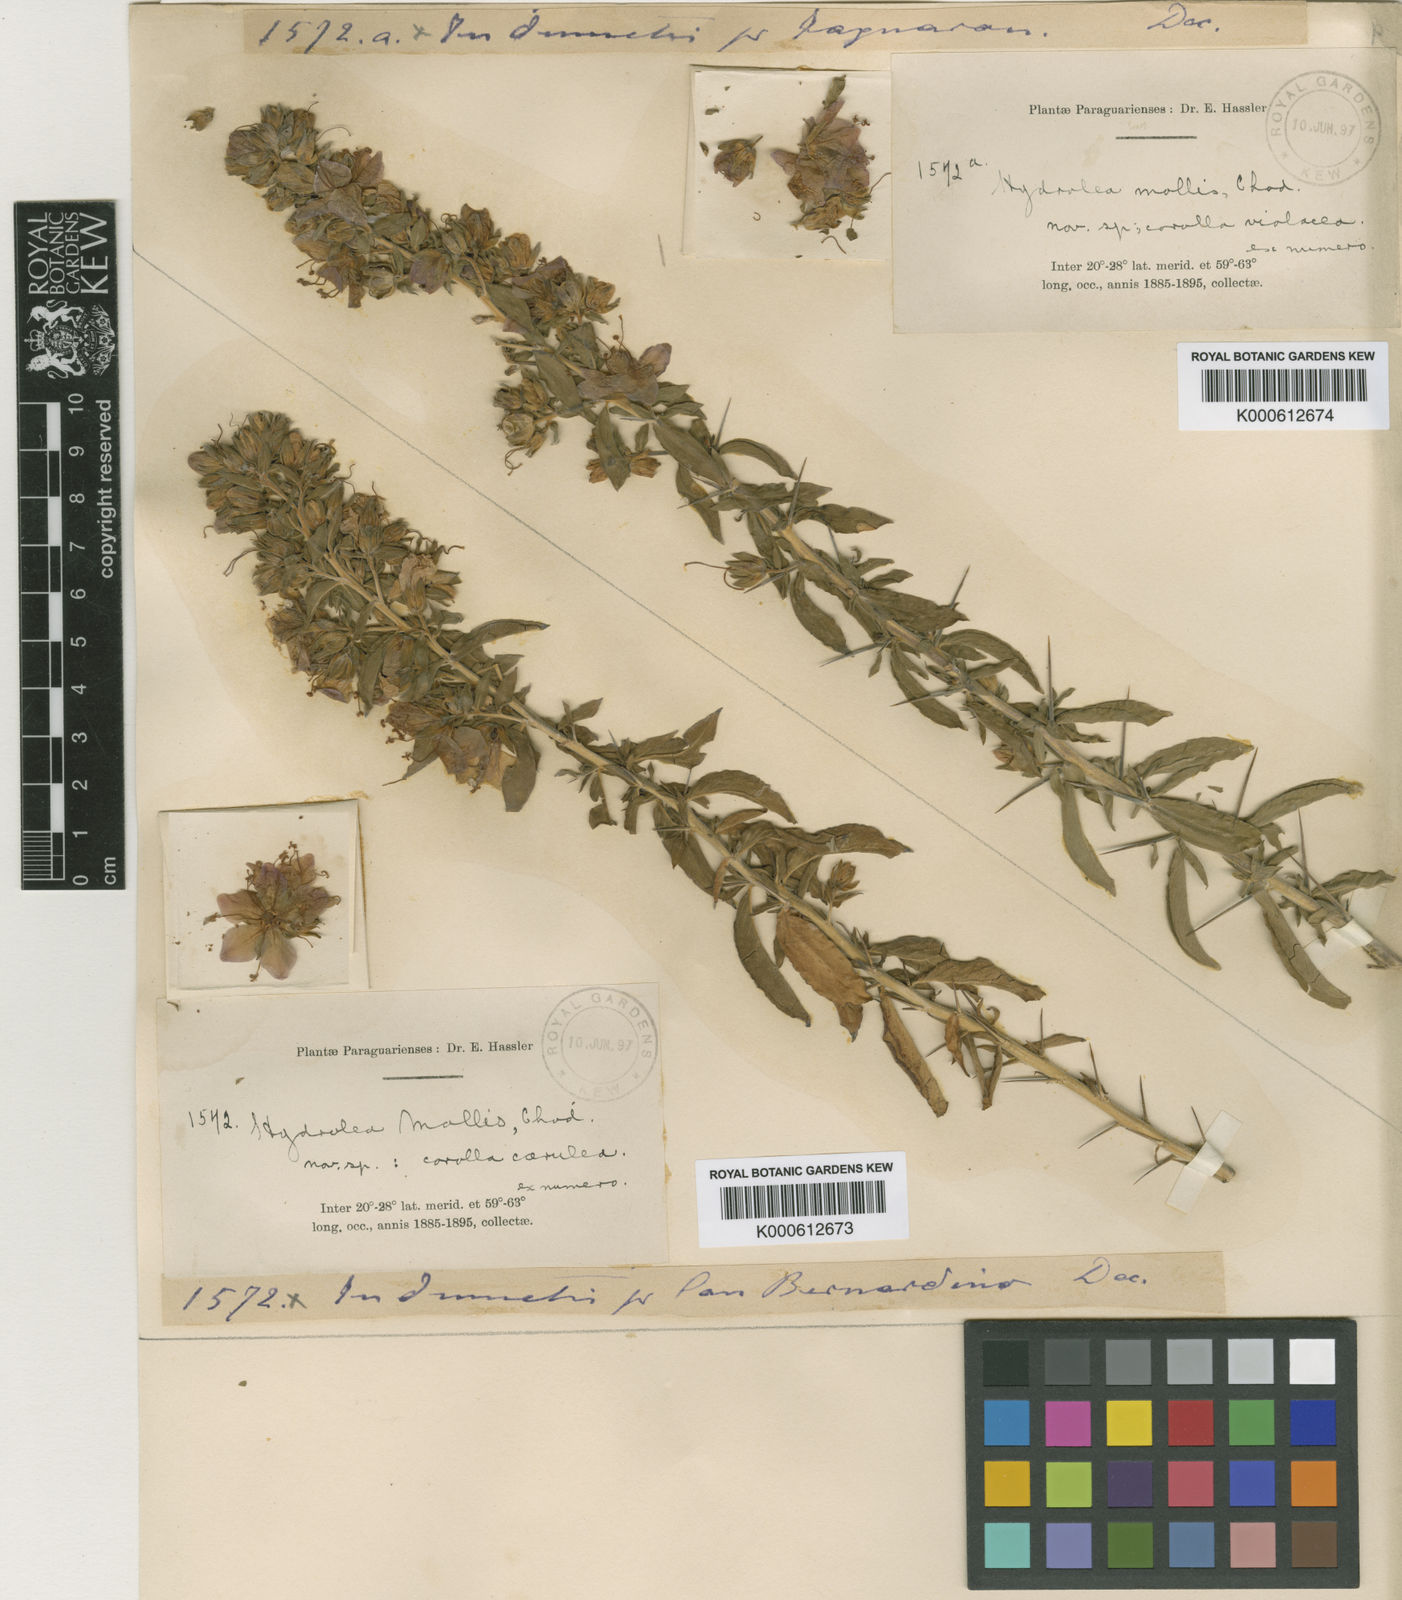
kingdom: Plantae
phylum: Tracheophyta
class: Magnoliopsida
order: Boraginales
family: Namaceae
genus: Nama
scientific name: Nama cubana
